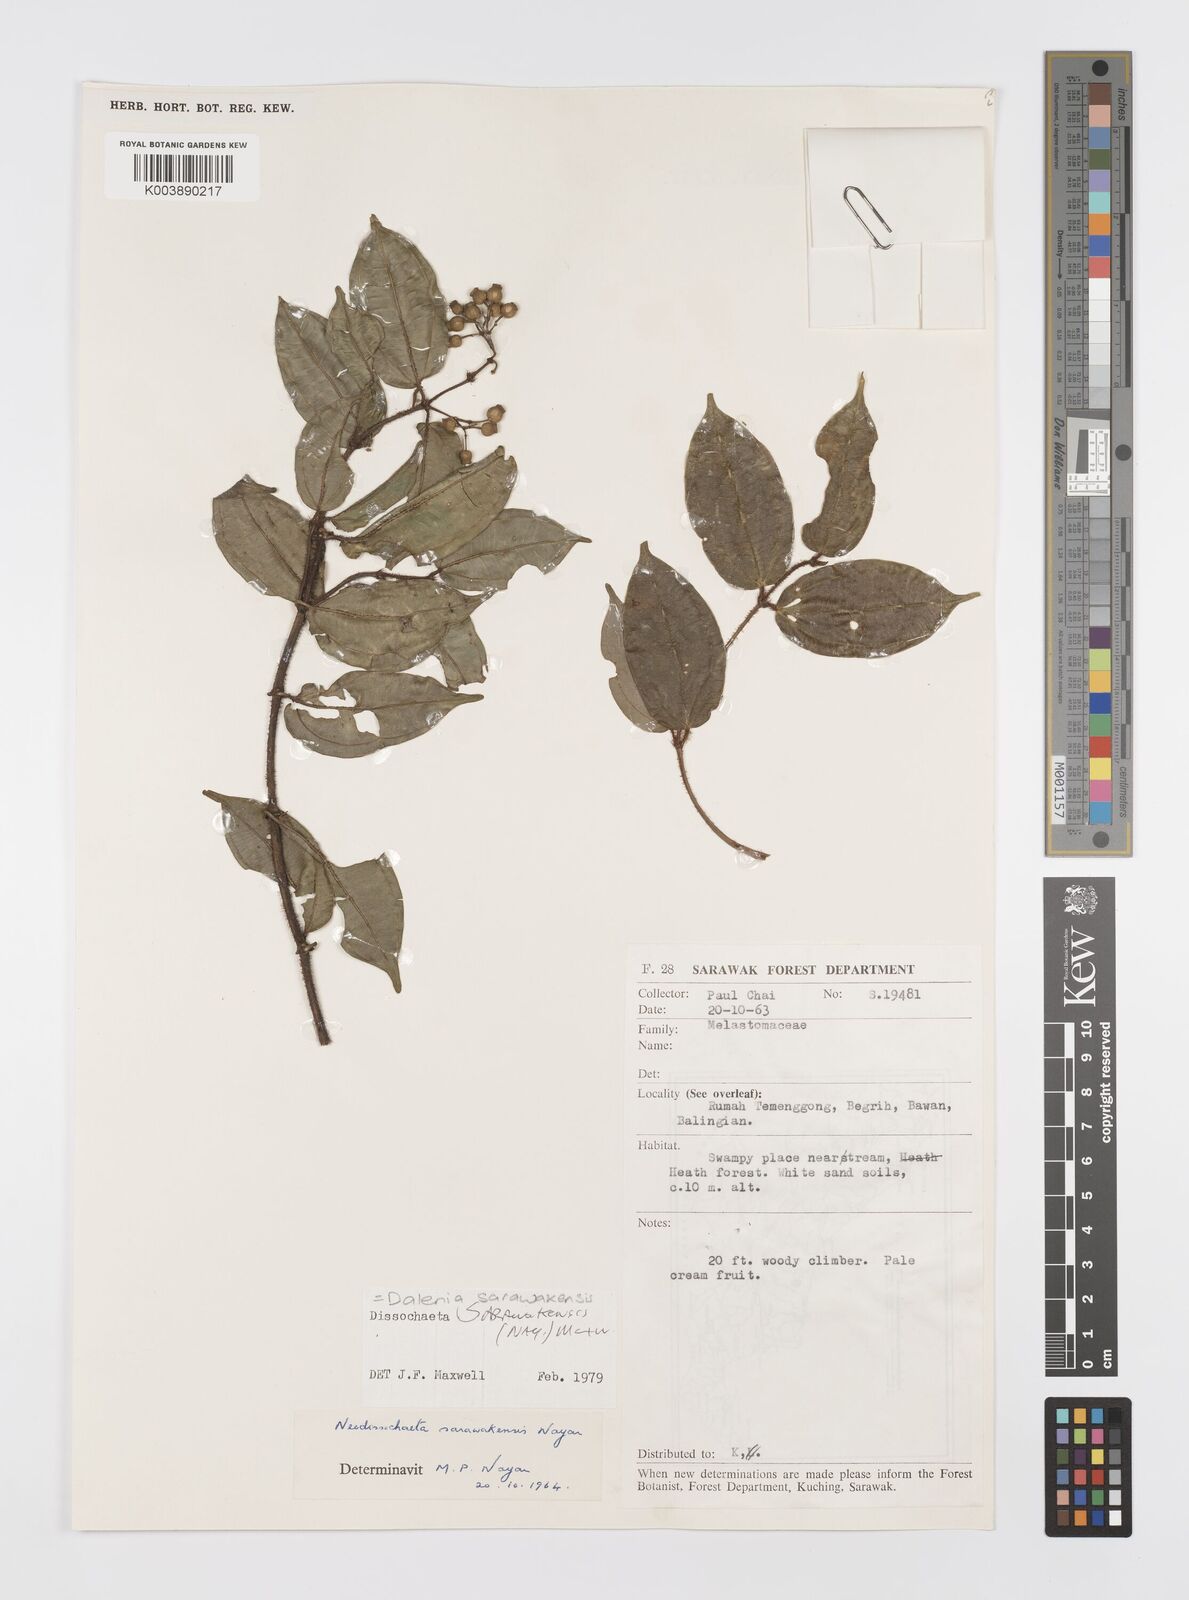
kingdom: Plantae
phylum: Tracheophyta
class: Magnoliopsida
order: Myrtales
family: Melastomataceae
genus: Dalenia
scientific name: Dalenia
